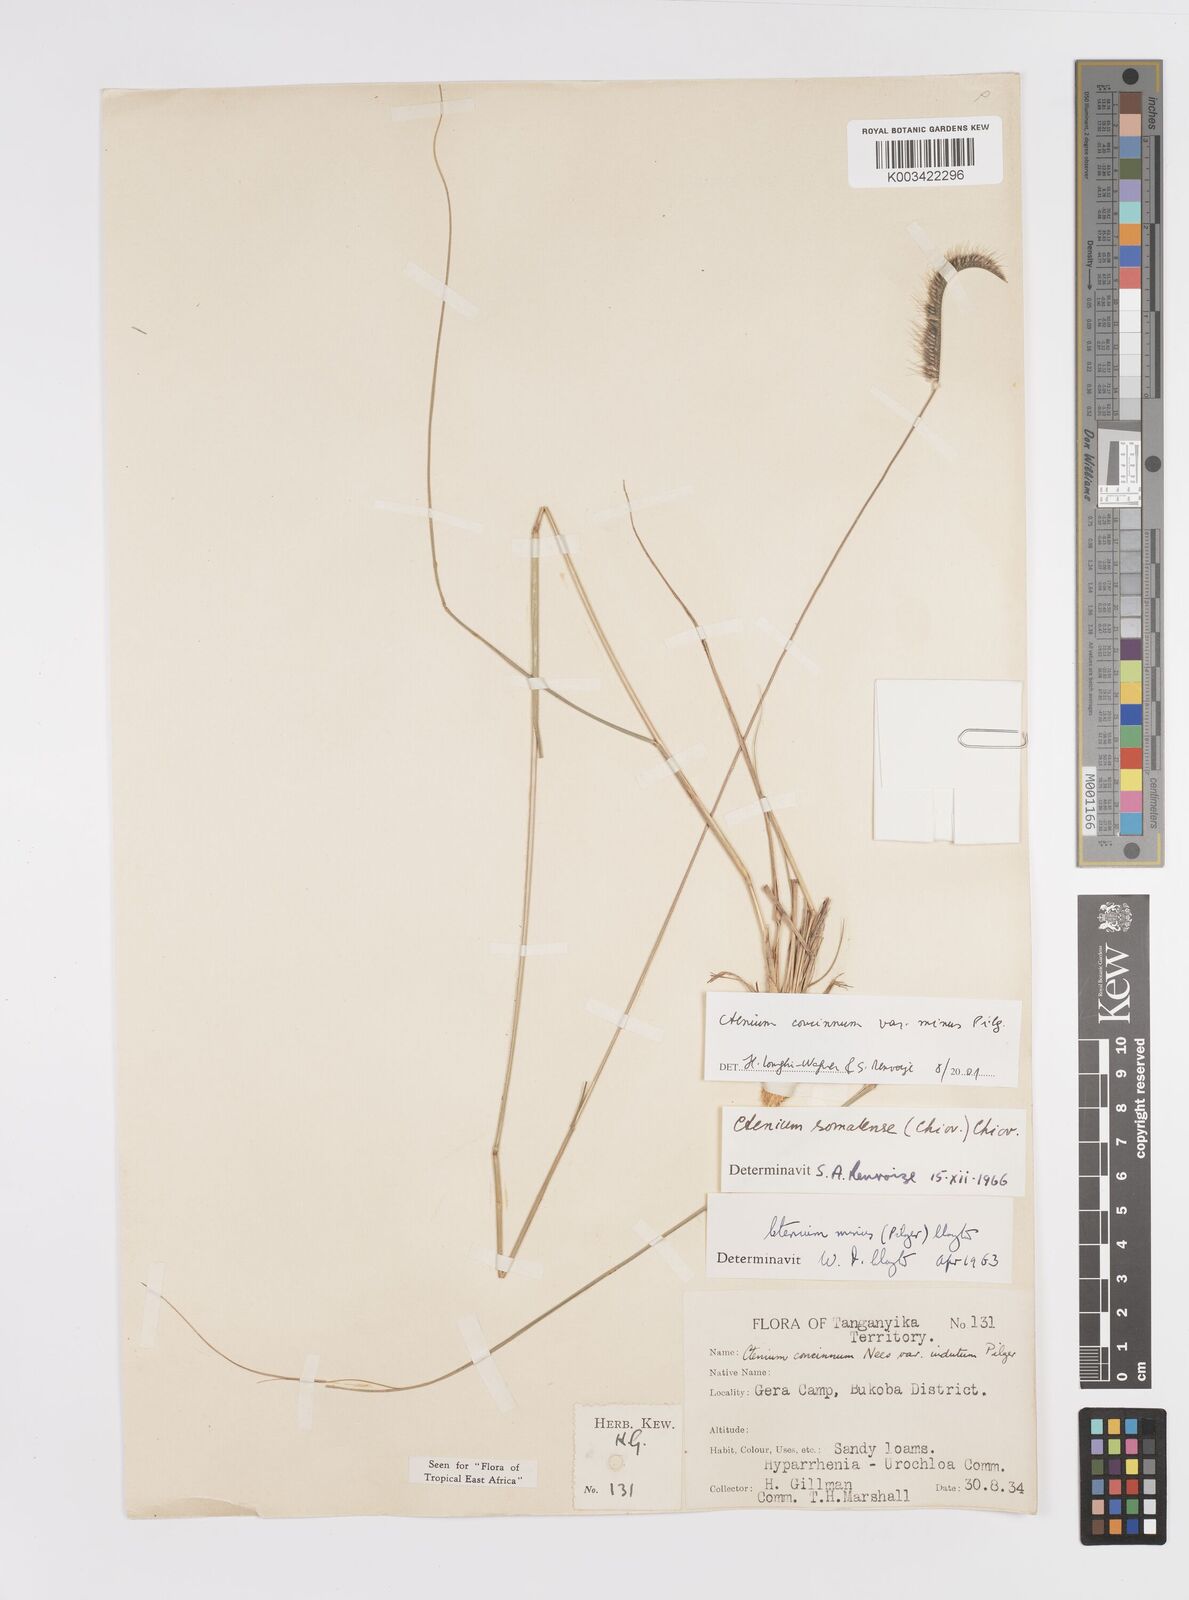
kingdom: Plantae
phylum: Tracheophyta
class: Liliopsida
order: Poales
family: Poaceae
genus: Ctenium
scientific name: Ctenium concinnum
